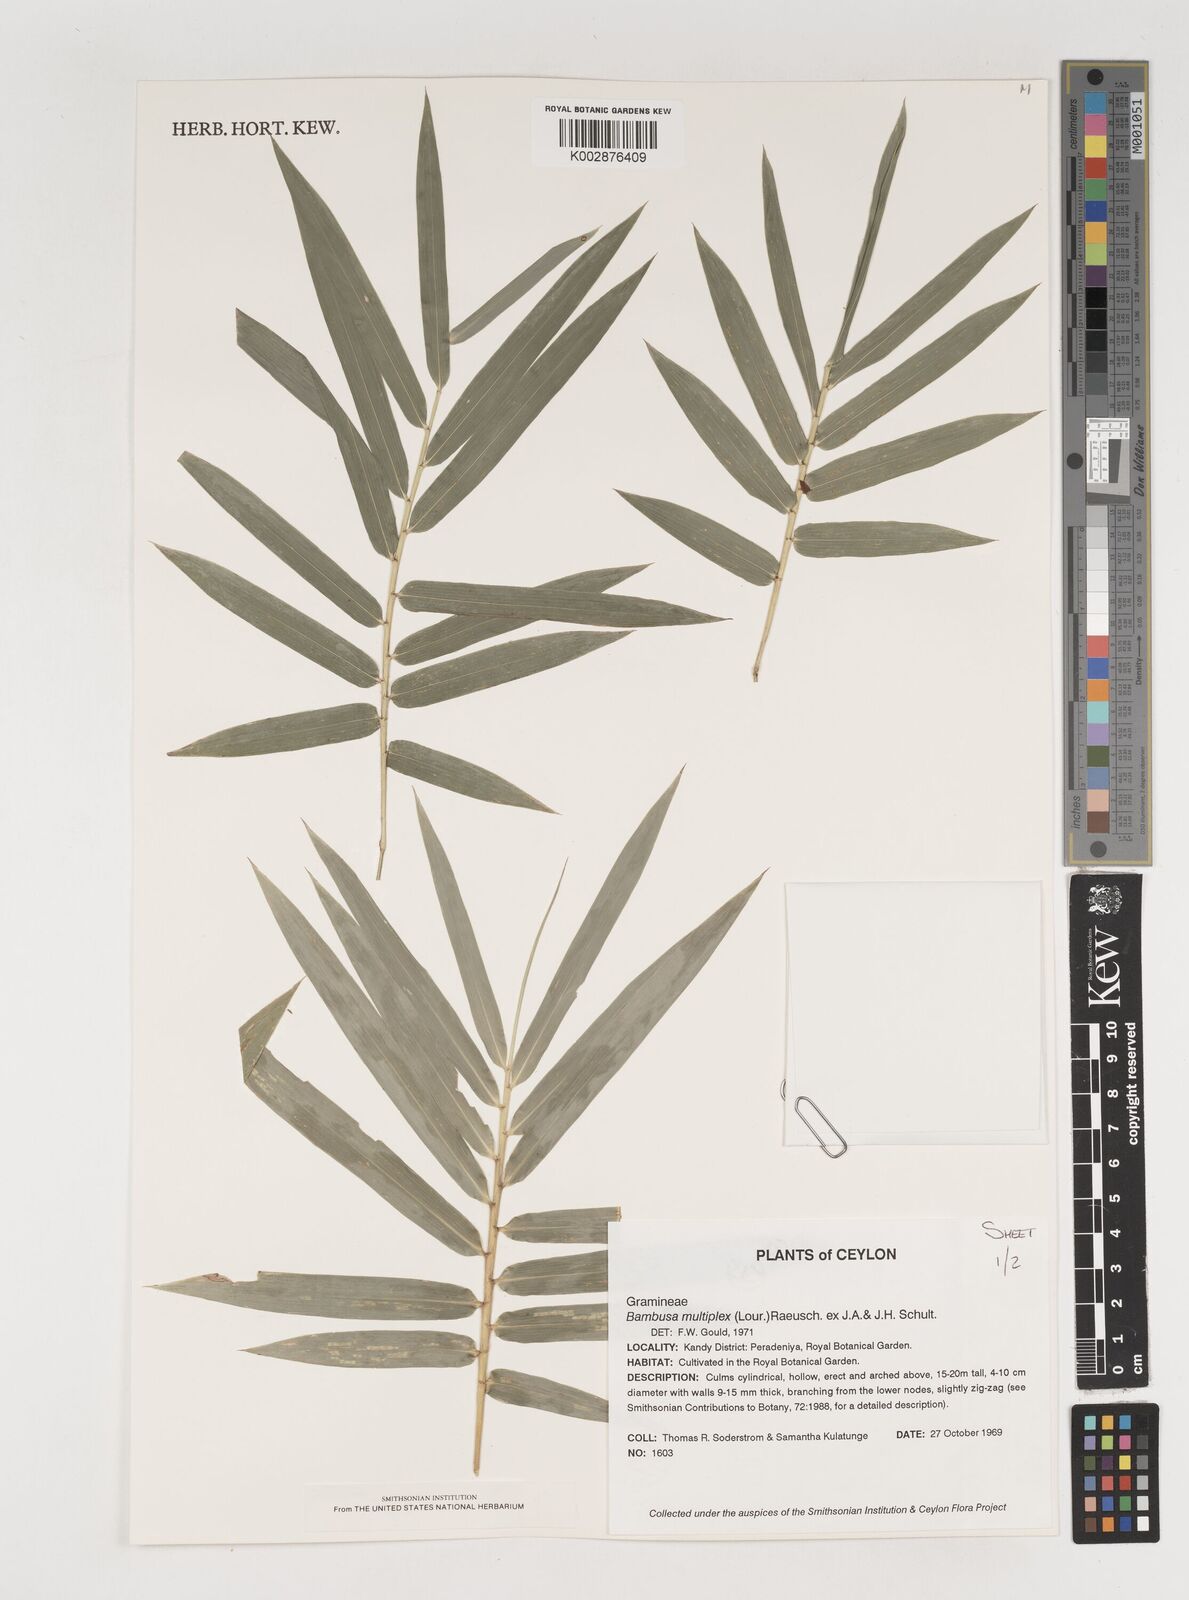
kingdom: Plantae
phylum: Tracheophyta
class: Liliopsida
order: Poales
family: Poaceae
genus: Bambusa
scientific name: Bambusa multiplex
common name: Hedge bamboo
